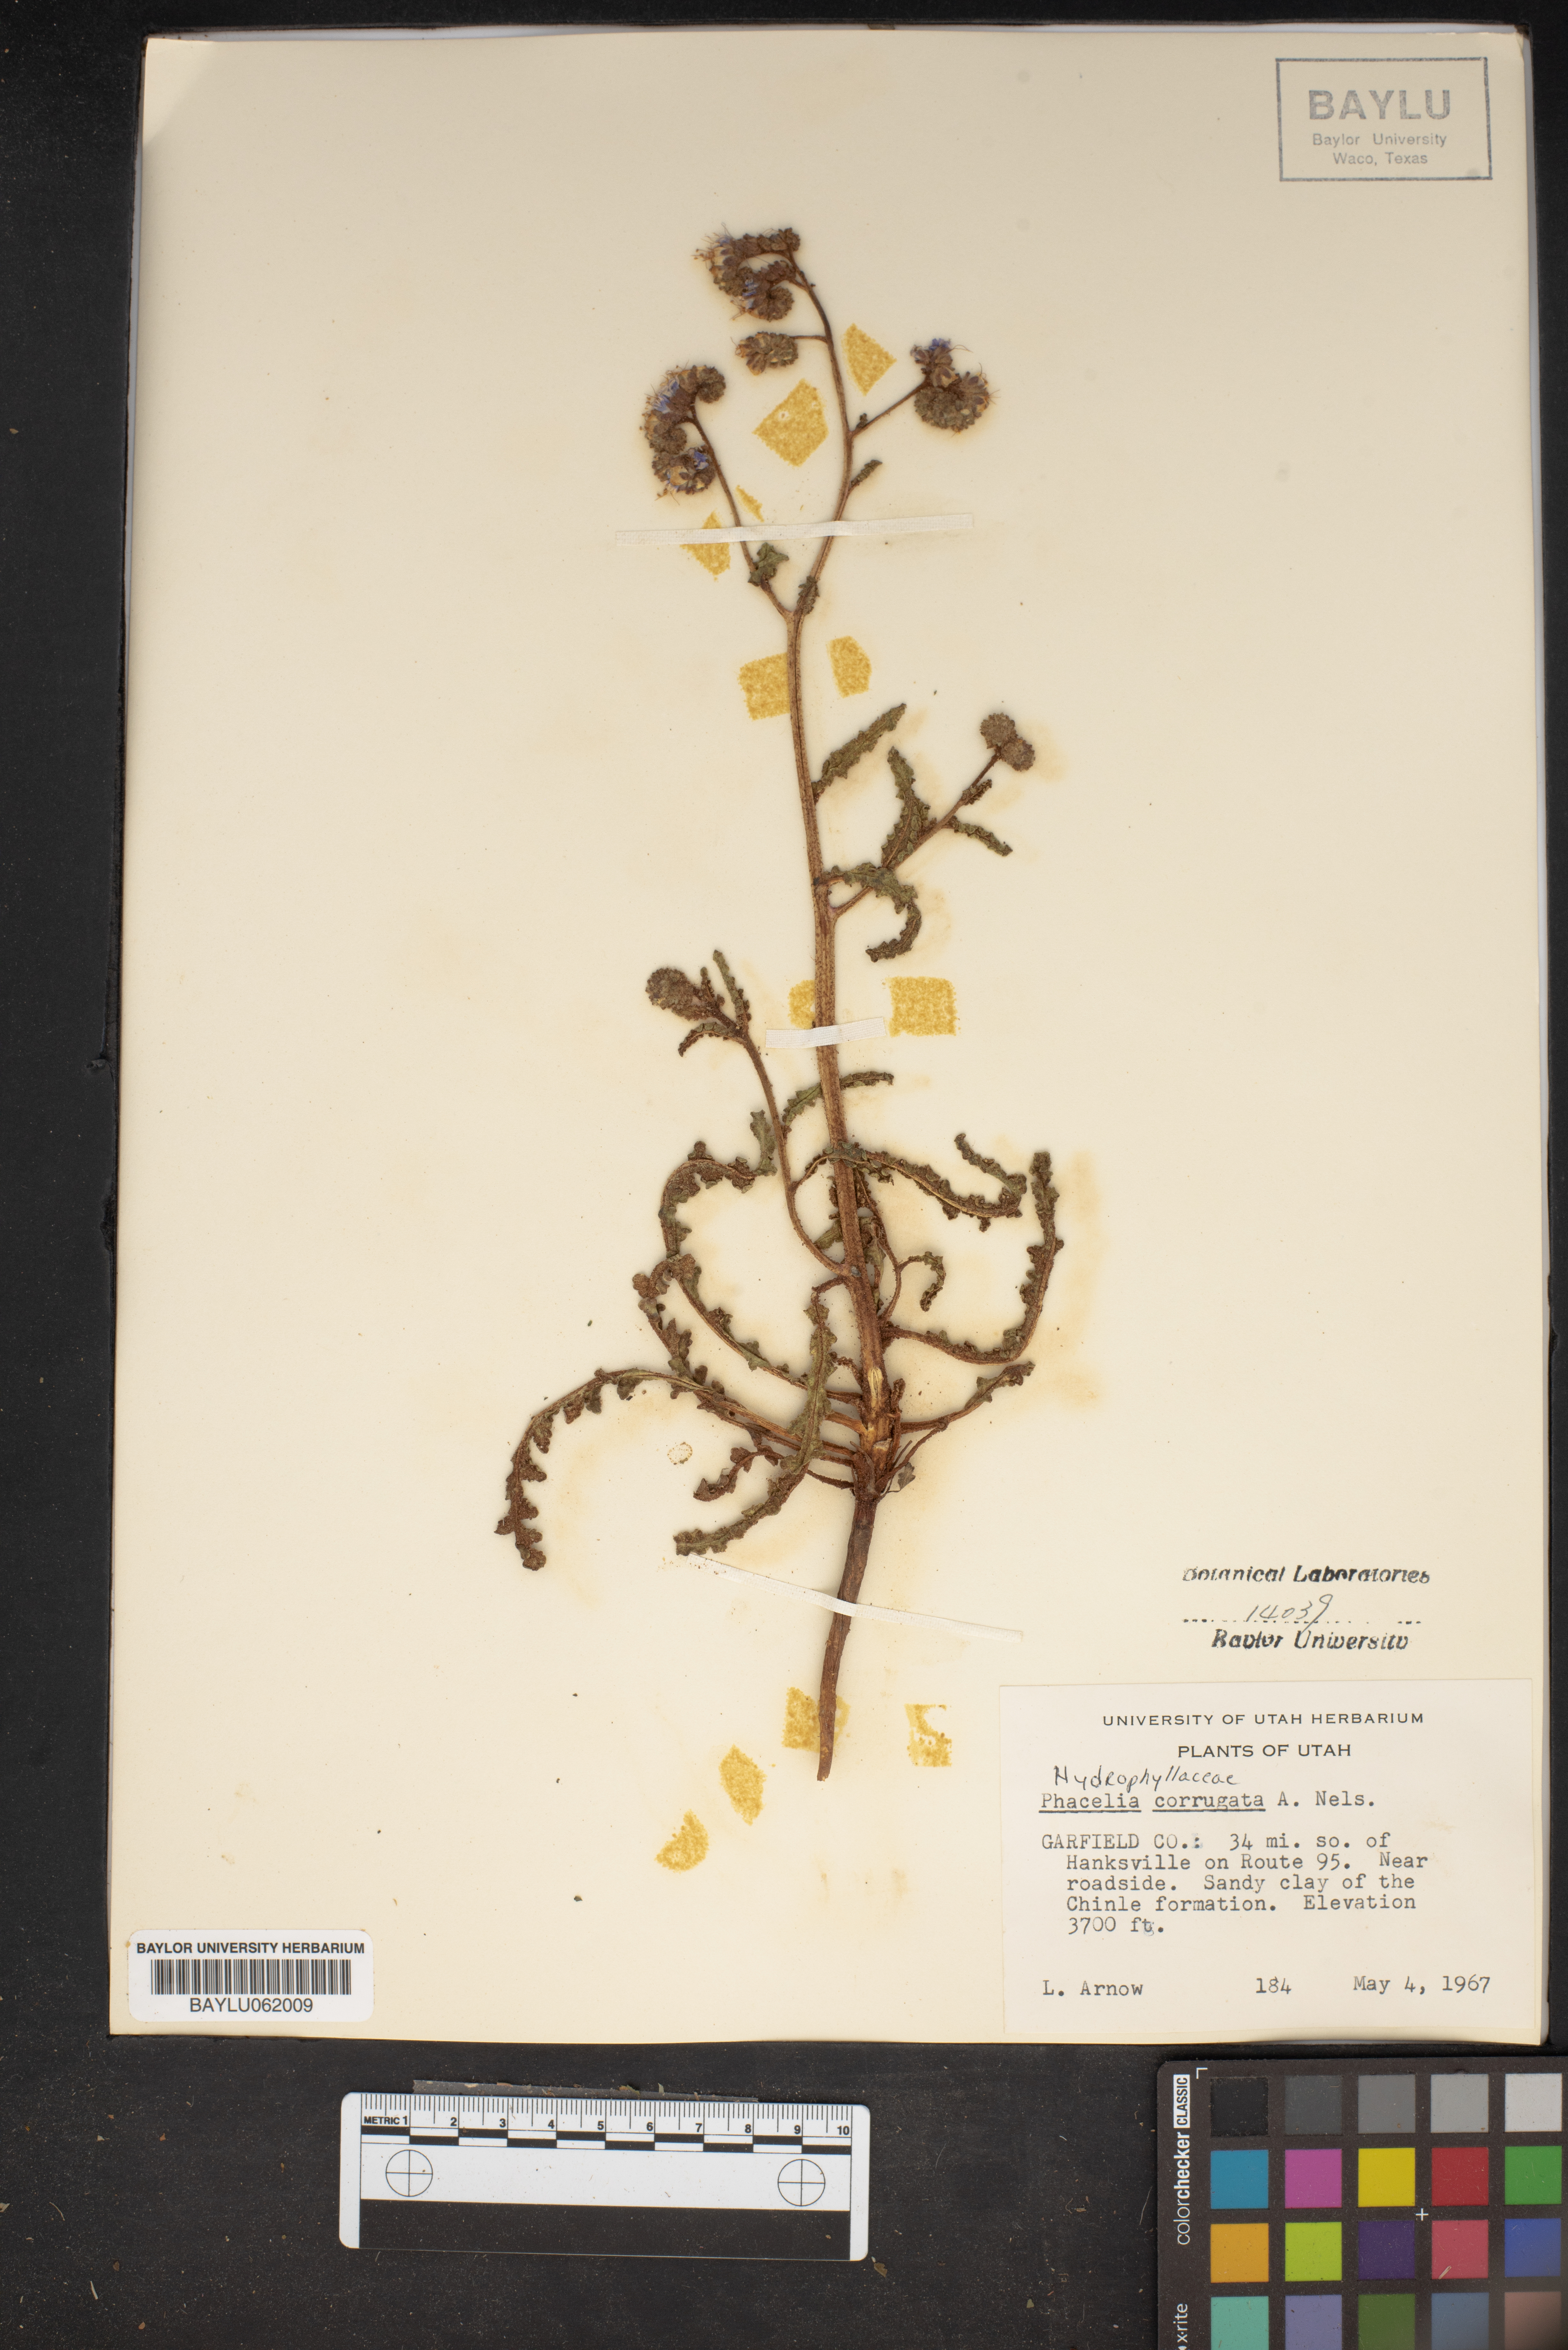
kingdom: Plantae
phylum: Tracheophyta
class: Magnoliopsida
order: Boraginales
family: Hydrophyllaceae
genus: Phacelia
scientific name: Phacelia corrugata
